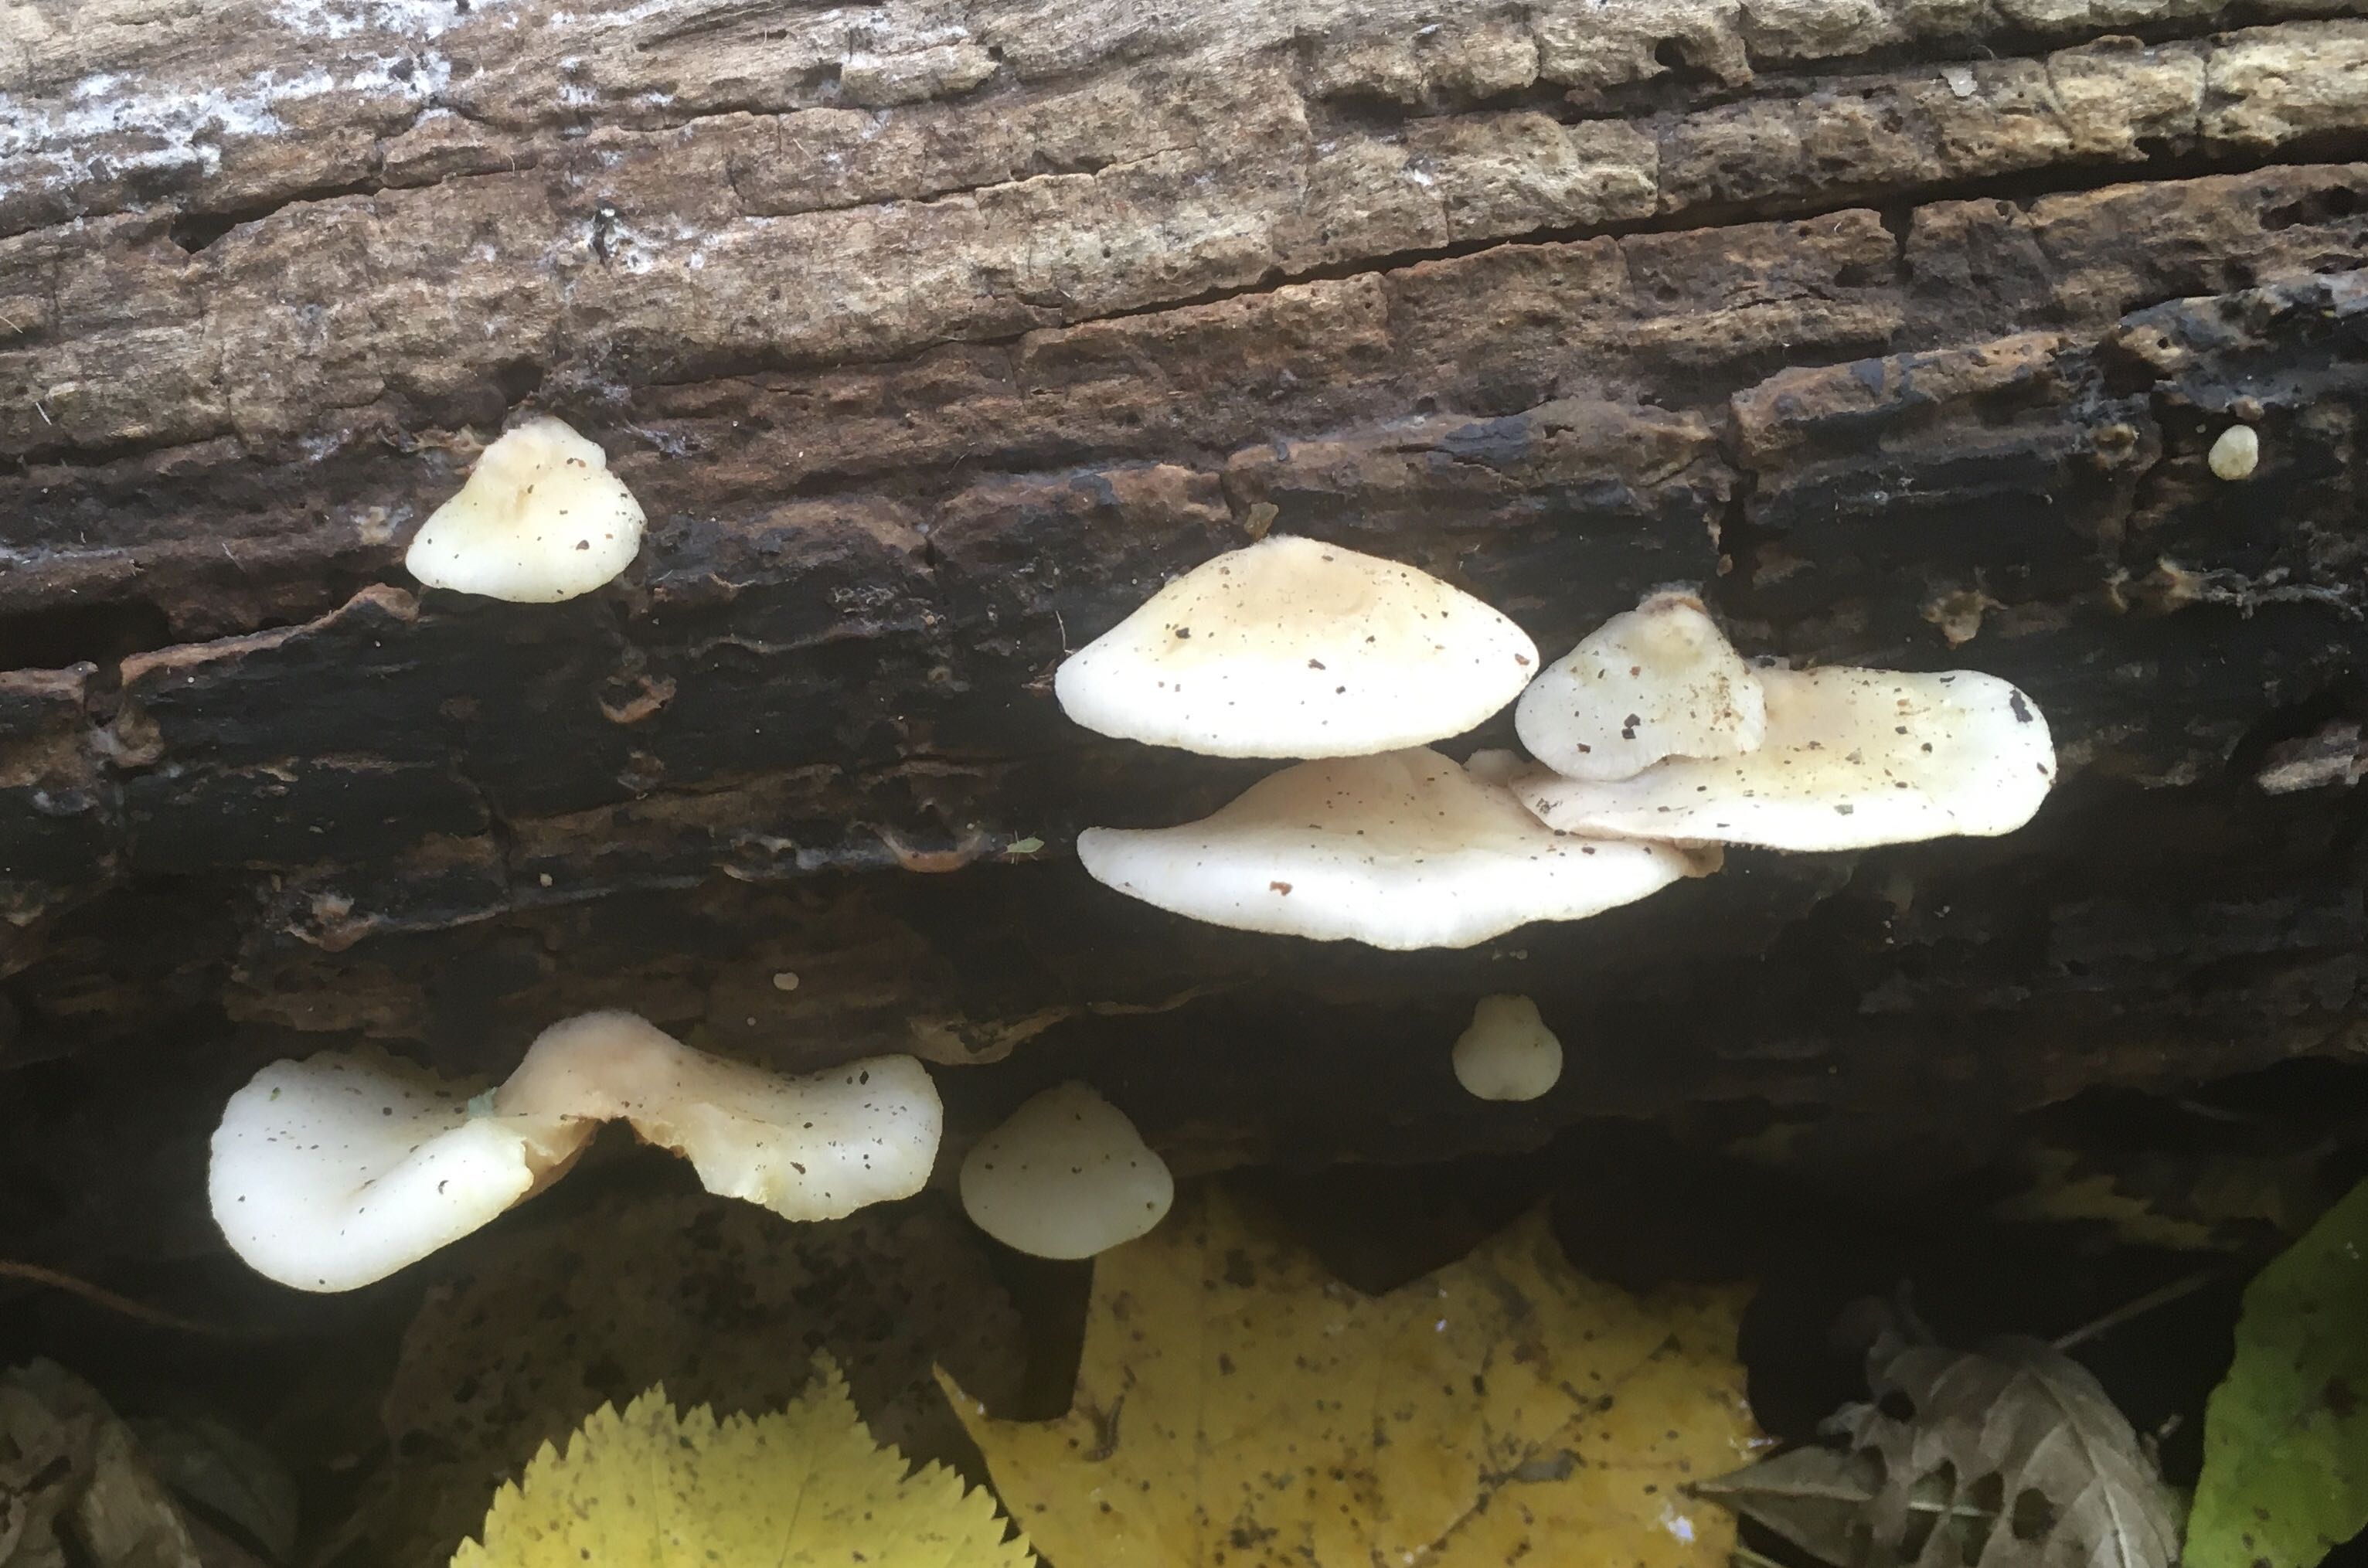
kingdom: Fungi
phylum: Basidiomycota
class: Agaricomycetes
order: Agaricales
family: Crepidotaceae
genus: Crepidotus
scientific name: Crepidotus mollis
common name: blød muslingesvamp
